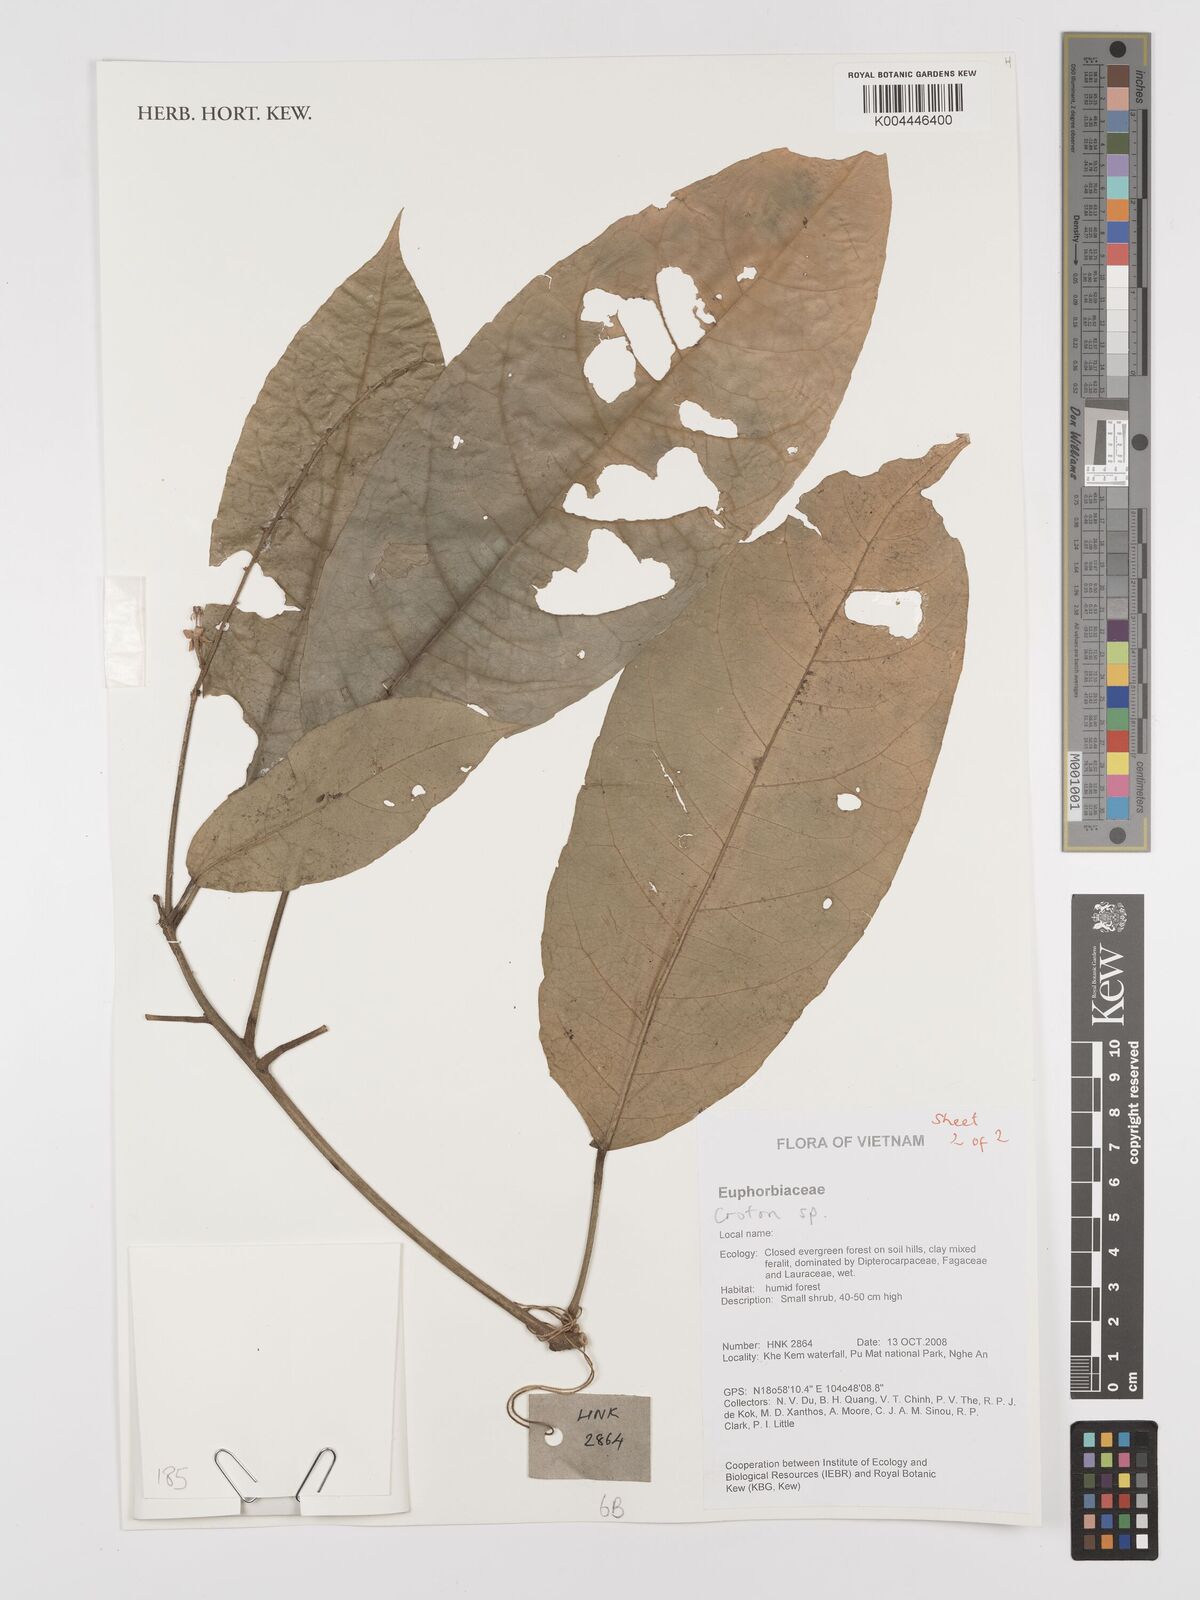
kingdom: Plantae
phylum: Tracheophyta
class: Magnoliopsida
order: Malpighiales
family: Euphorbiaceae
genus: Croton
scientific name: Croton
